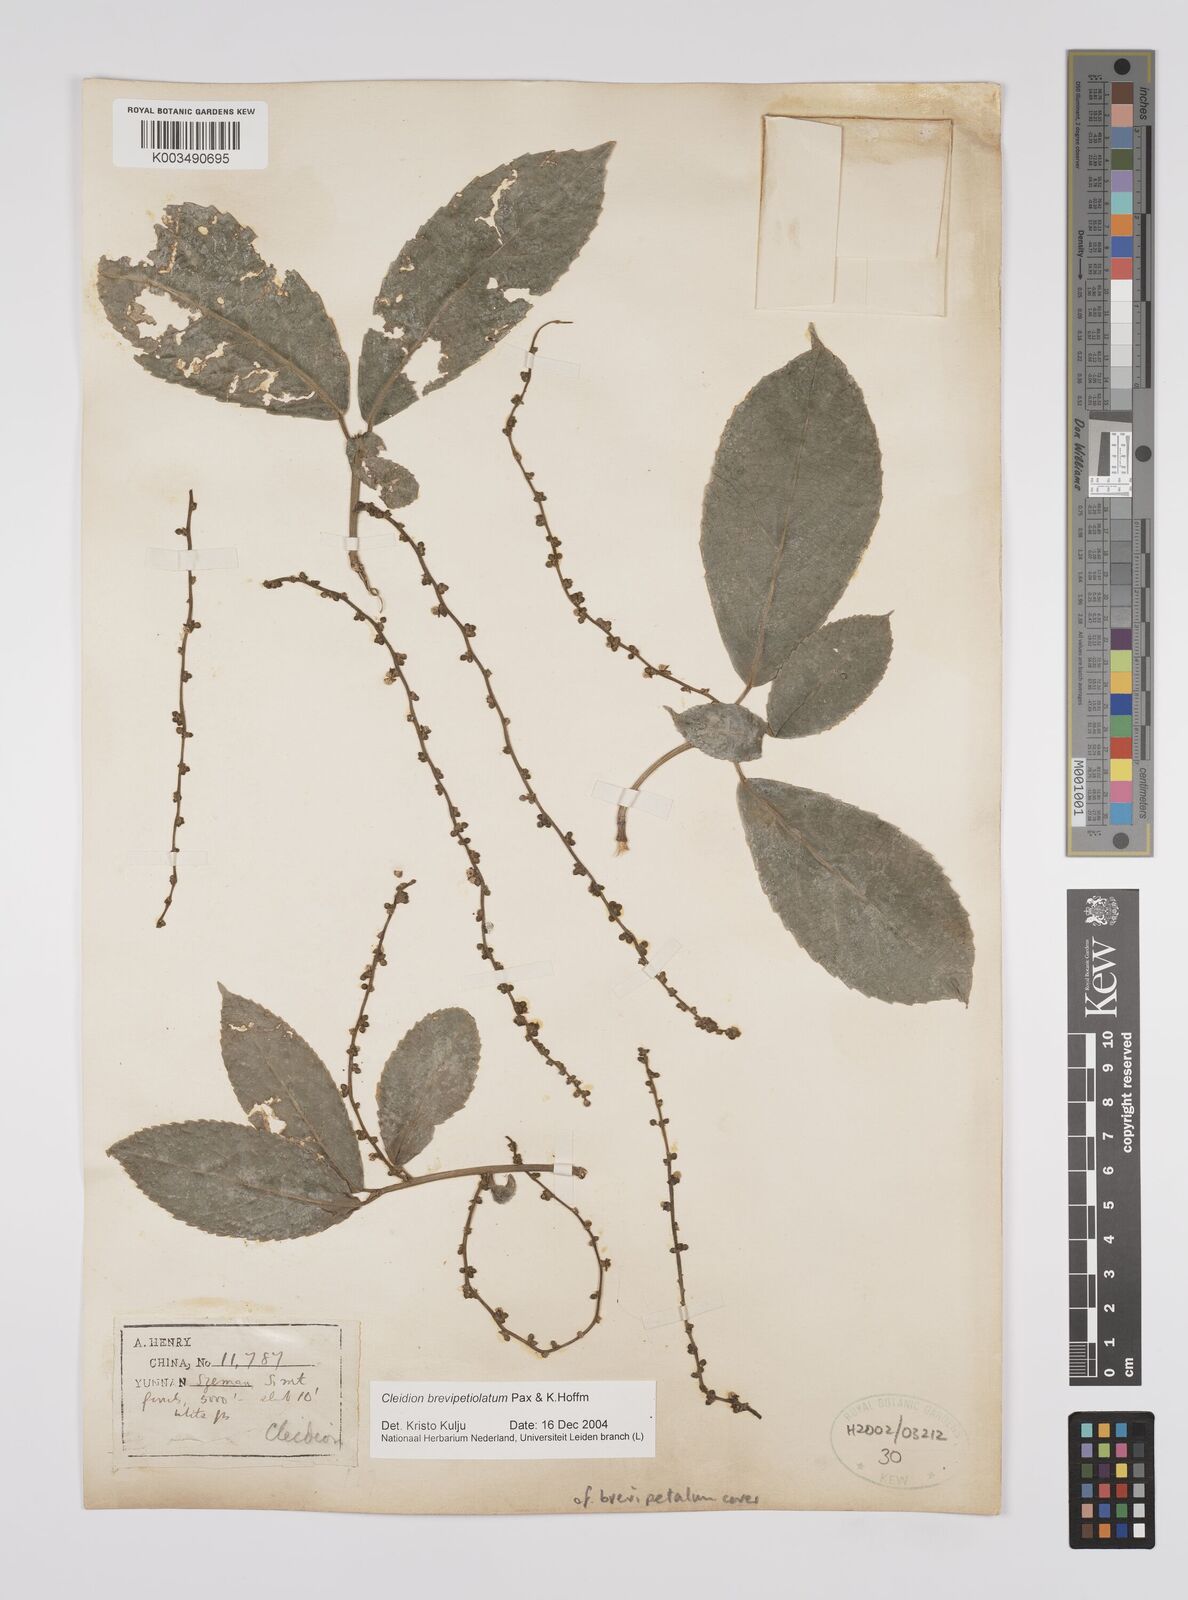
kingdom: Plantae
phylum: Tracheophyta
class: Magnoliopsida
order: Malpighiales
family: Euphorbiaceae
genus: Cleidion
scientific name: Cleidion brevipetiolatum
